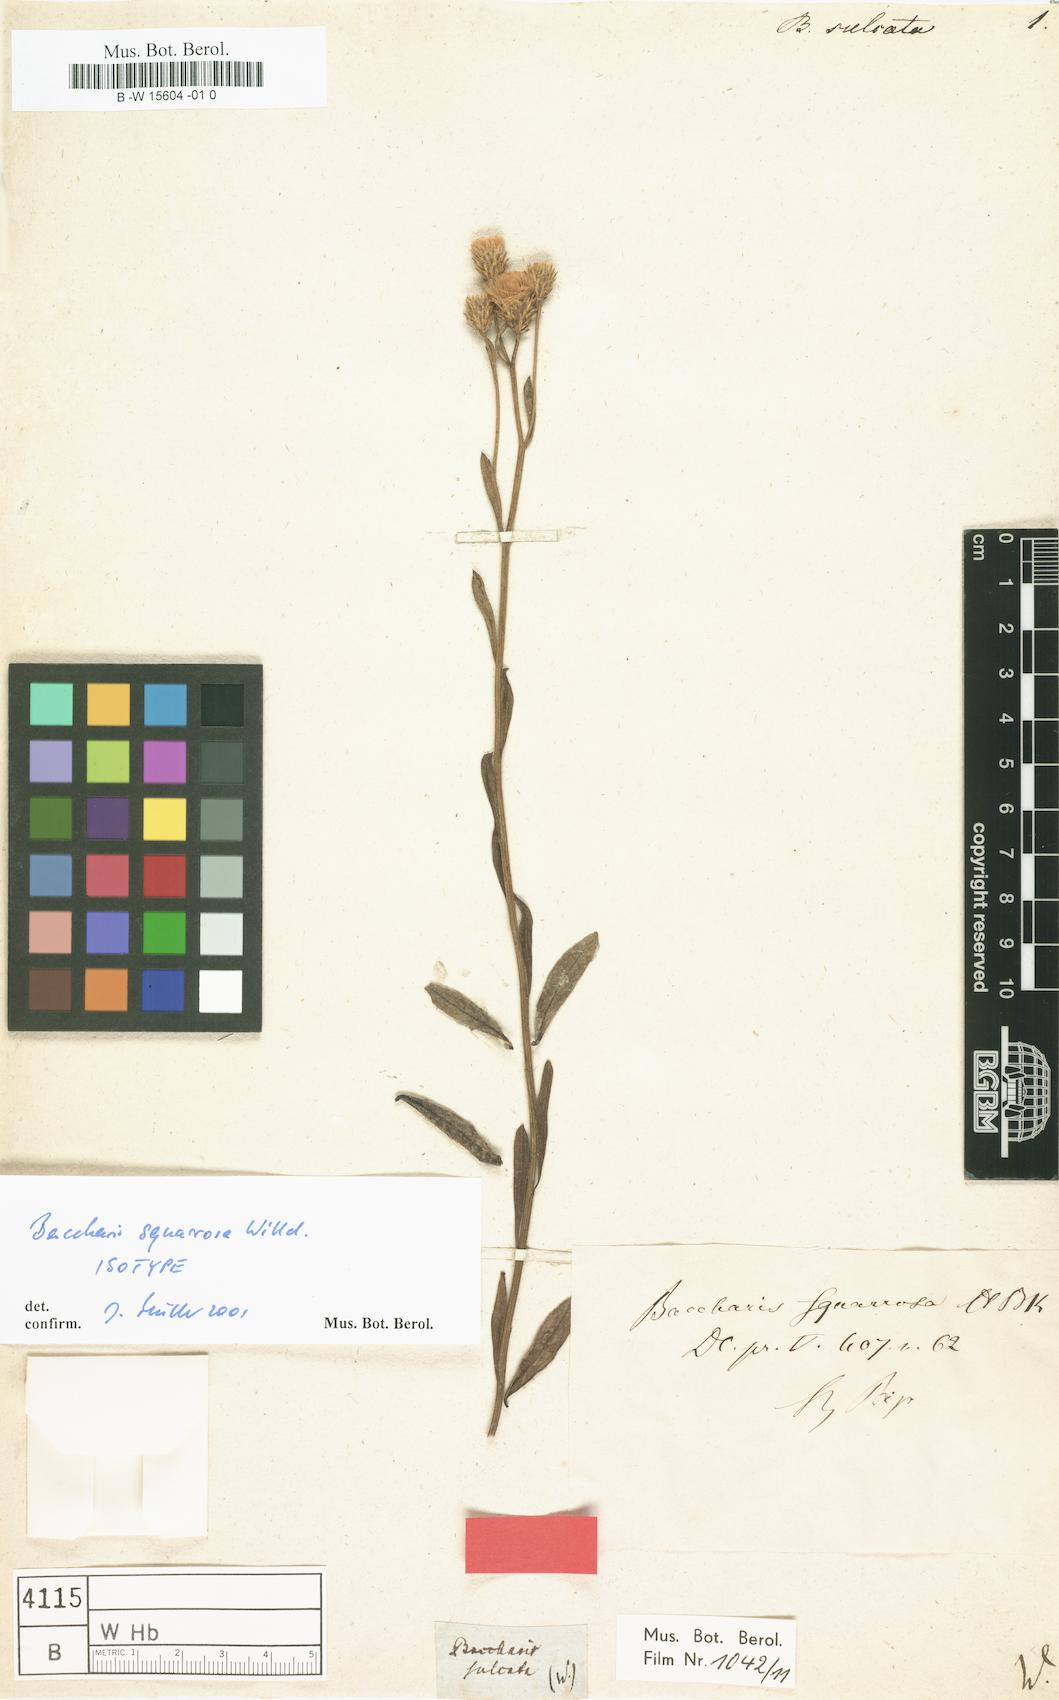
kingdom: Plantae
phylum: Tracheophyta
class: Magnoliopsida
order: Asterales
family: Asteraceae
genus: Baccharis
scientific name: Baccharis sulcata
